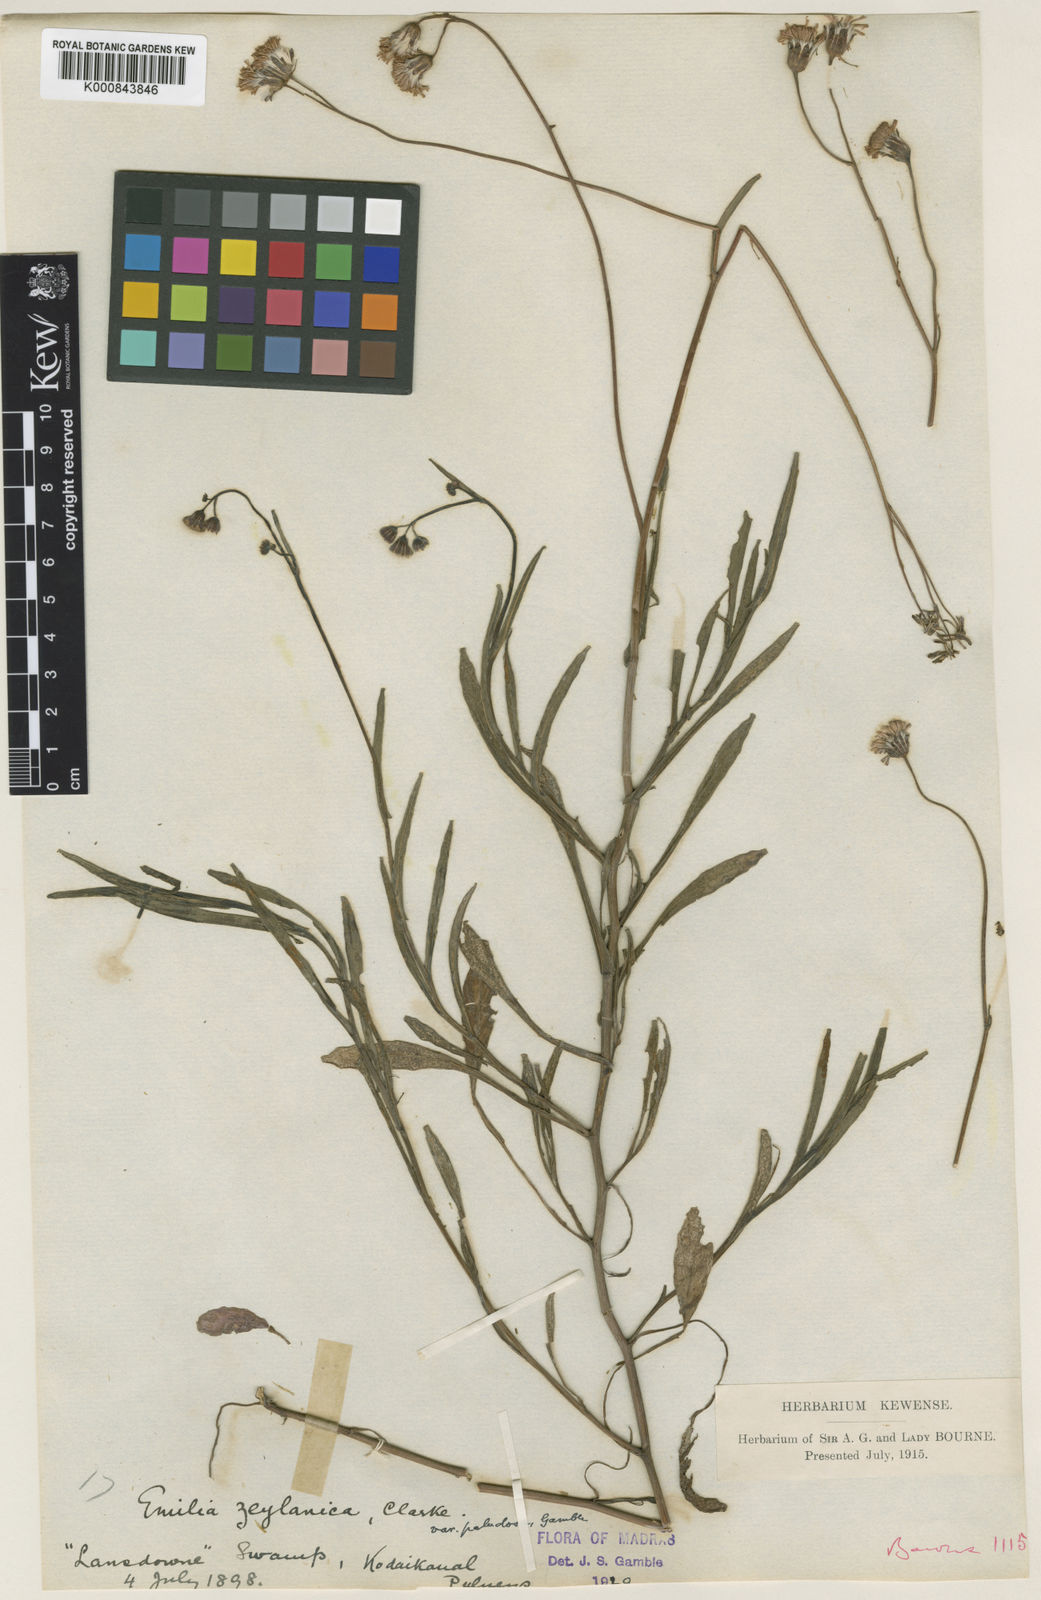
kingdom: Plantae
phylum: Tracheophyta
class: Magnoliopsida
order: Asterales
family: Asteraceae
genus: Emilia
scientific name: Emilia zeylanica
